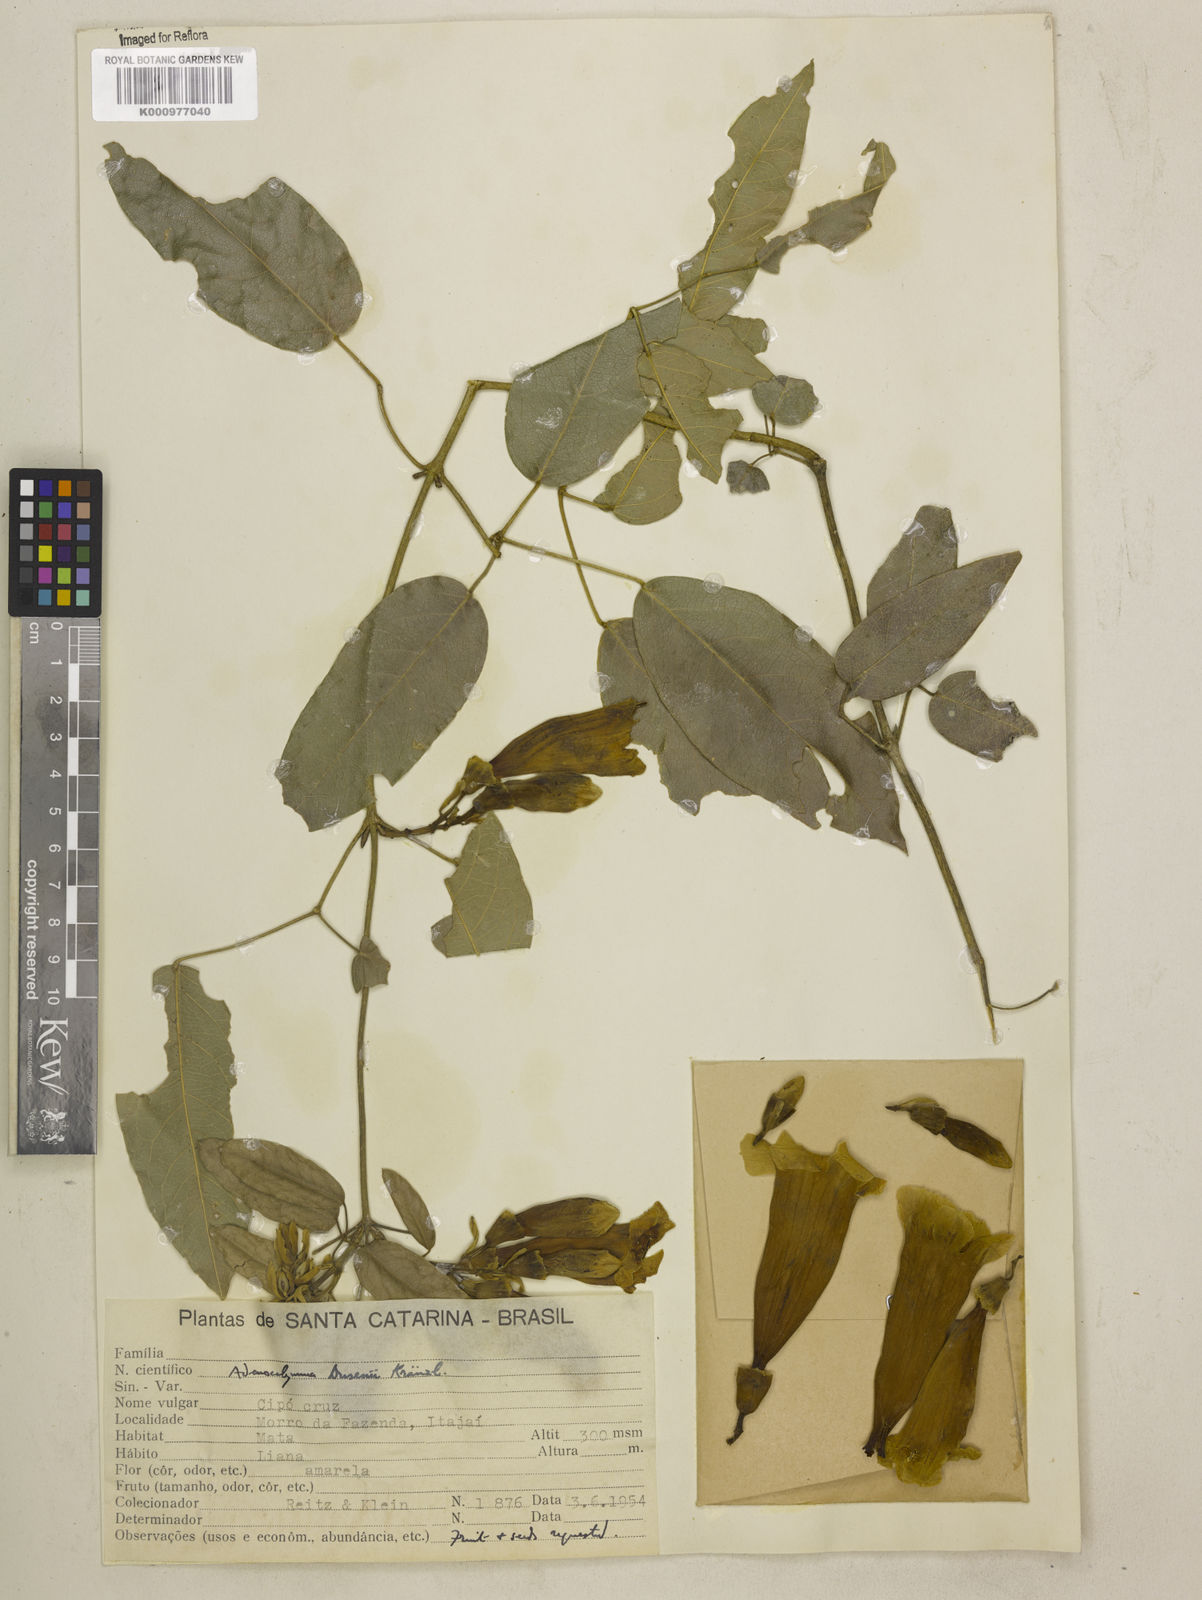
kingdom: Plantae
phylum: Tracheophyta
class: Magnoliopsida
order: Lamiales
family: Bignoniaceae
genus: Adenocalymma
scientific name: Adenocalymma dusenii
